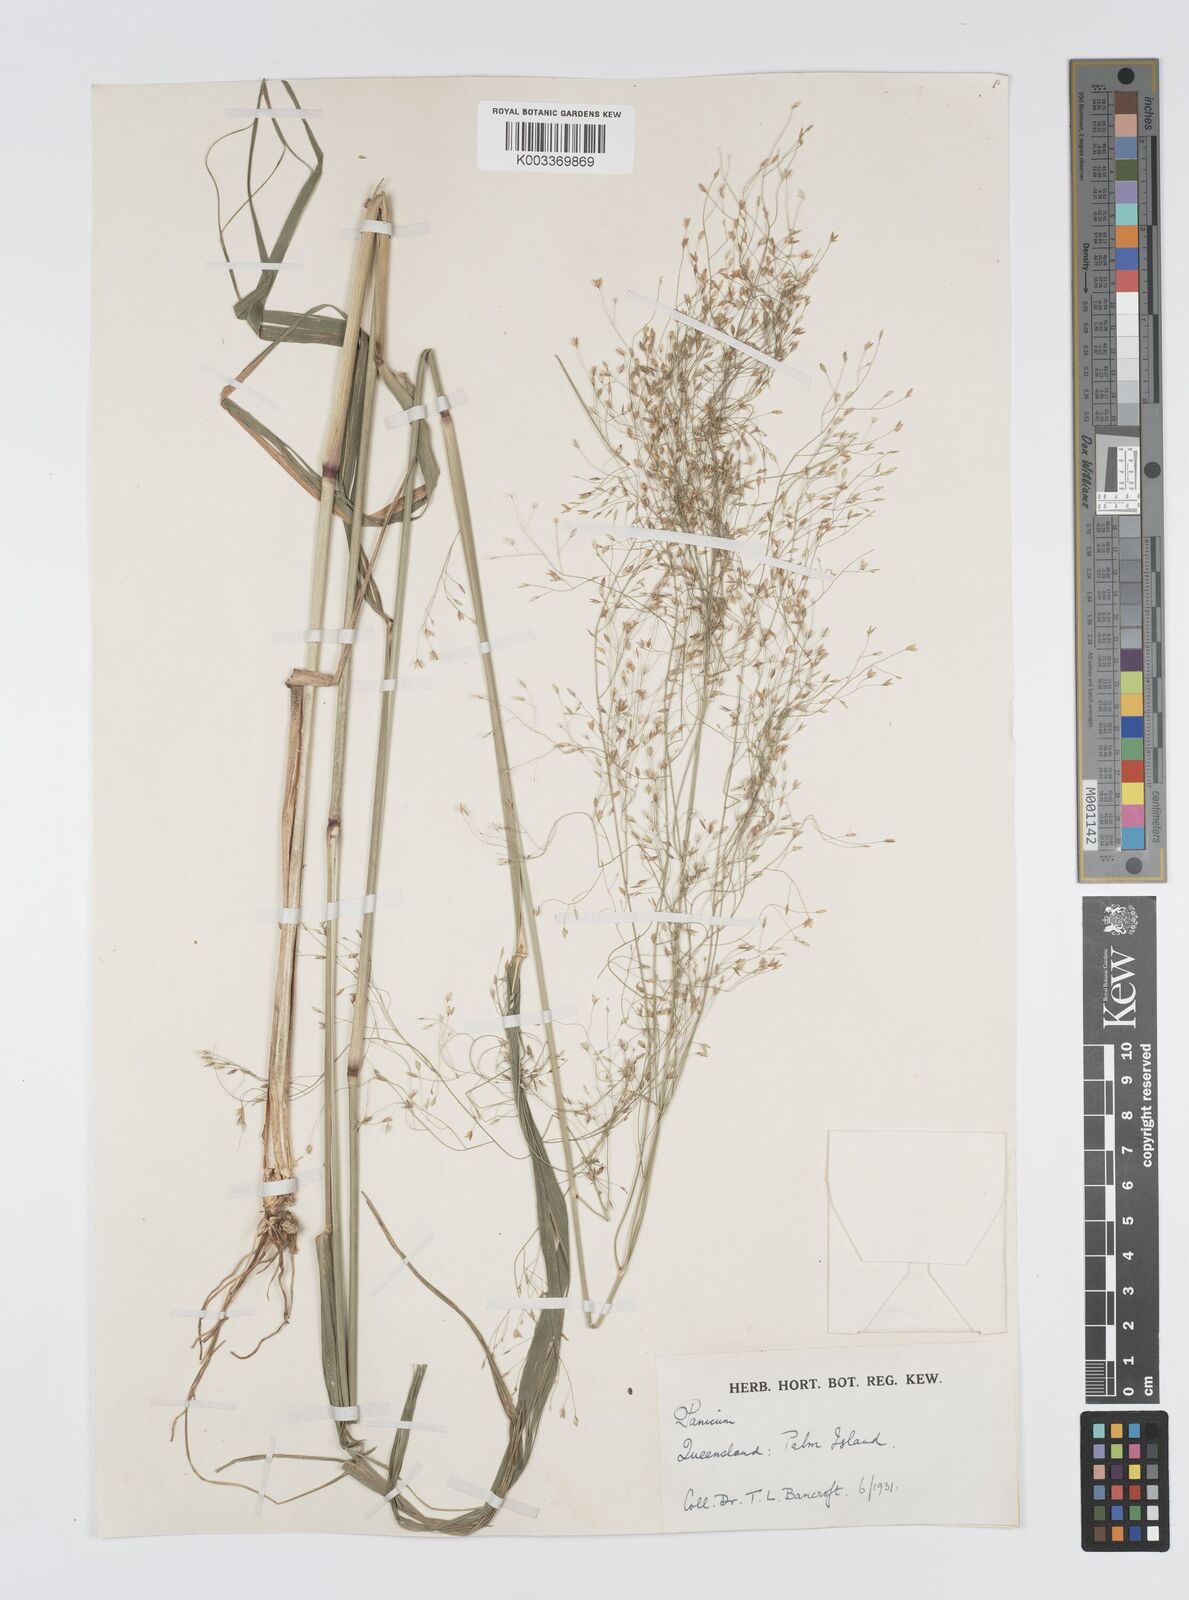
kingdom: Plantae
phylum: Tracheophyta
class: Liliopsida
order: Poales
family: Poaceae
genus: Panicum
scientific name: Panicum mitchellii
